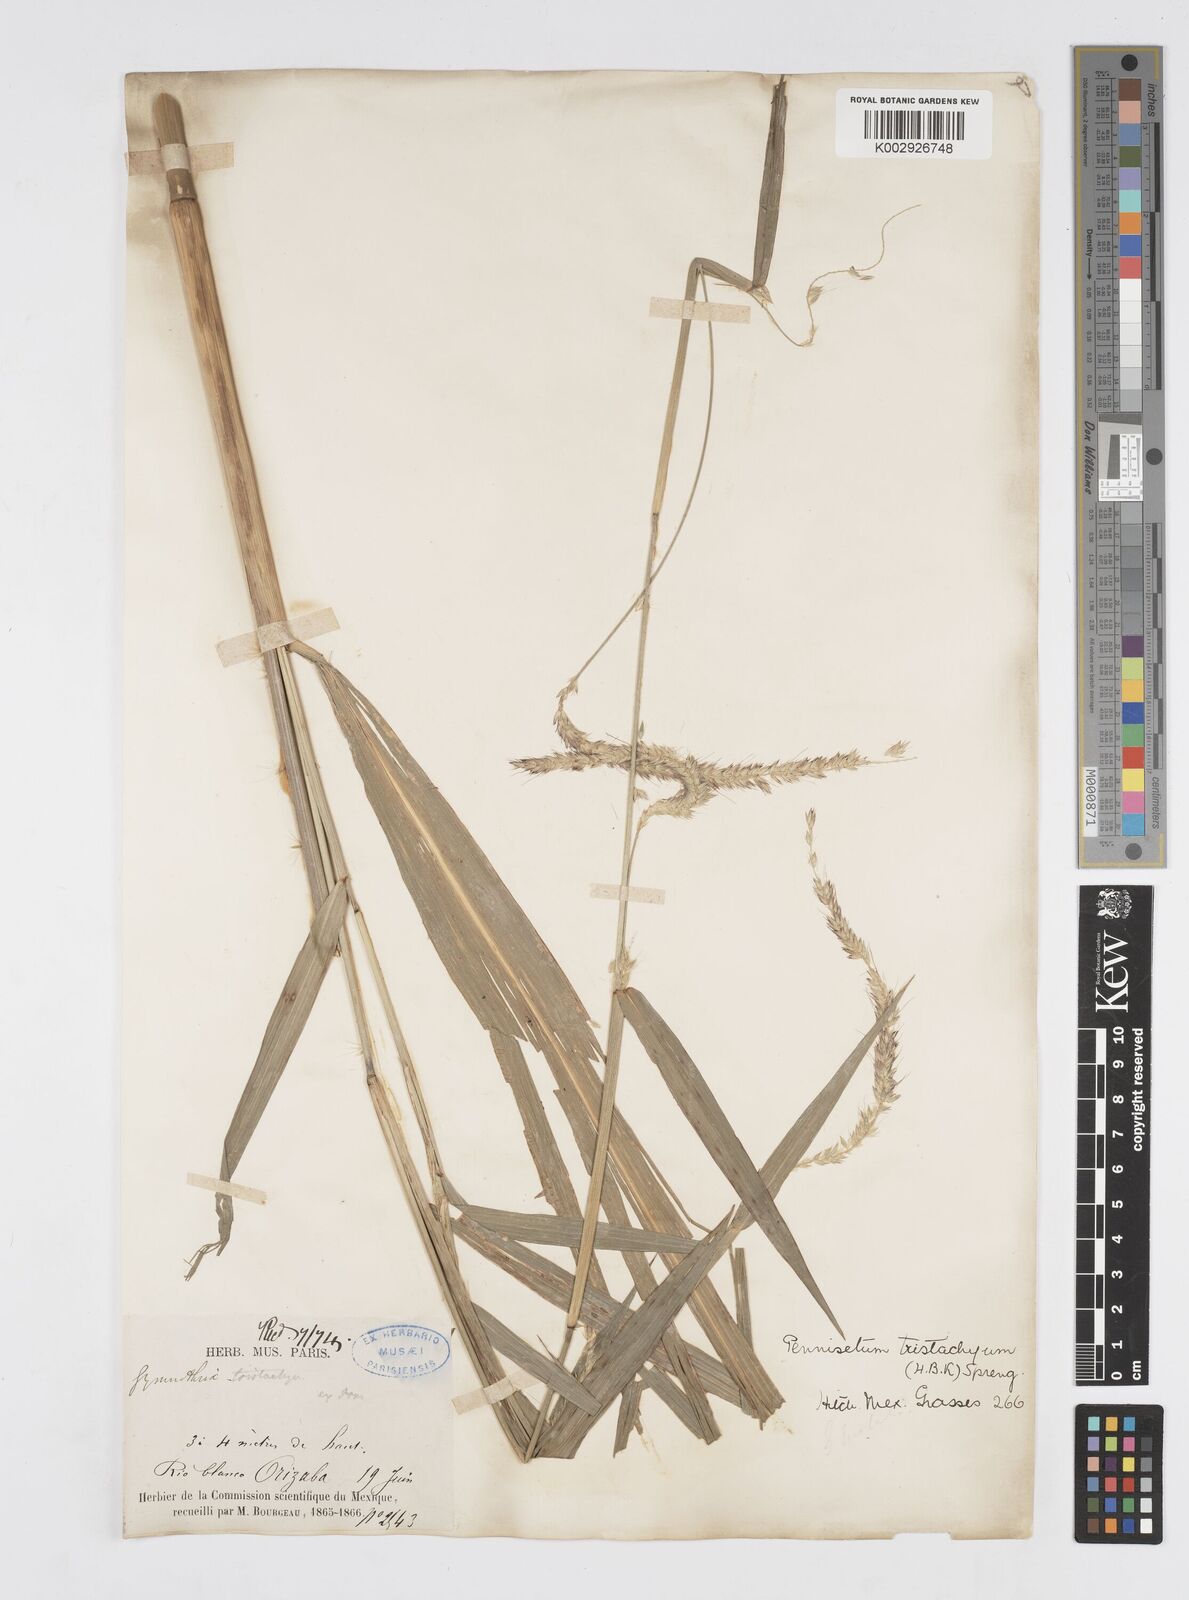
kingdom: Plantae
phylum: Tracheophyta
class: Liliopsida
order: Poales
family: Poaceae
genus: Cenchrus
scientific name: Cenchrus prolificus
